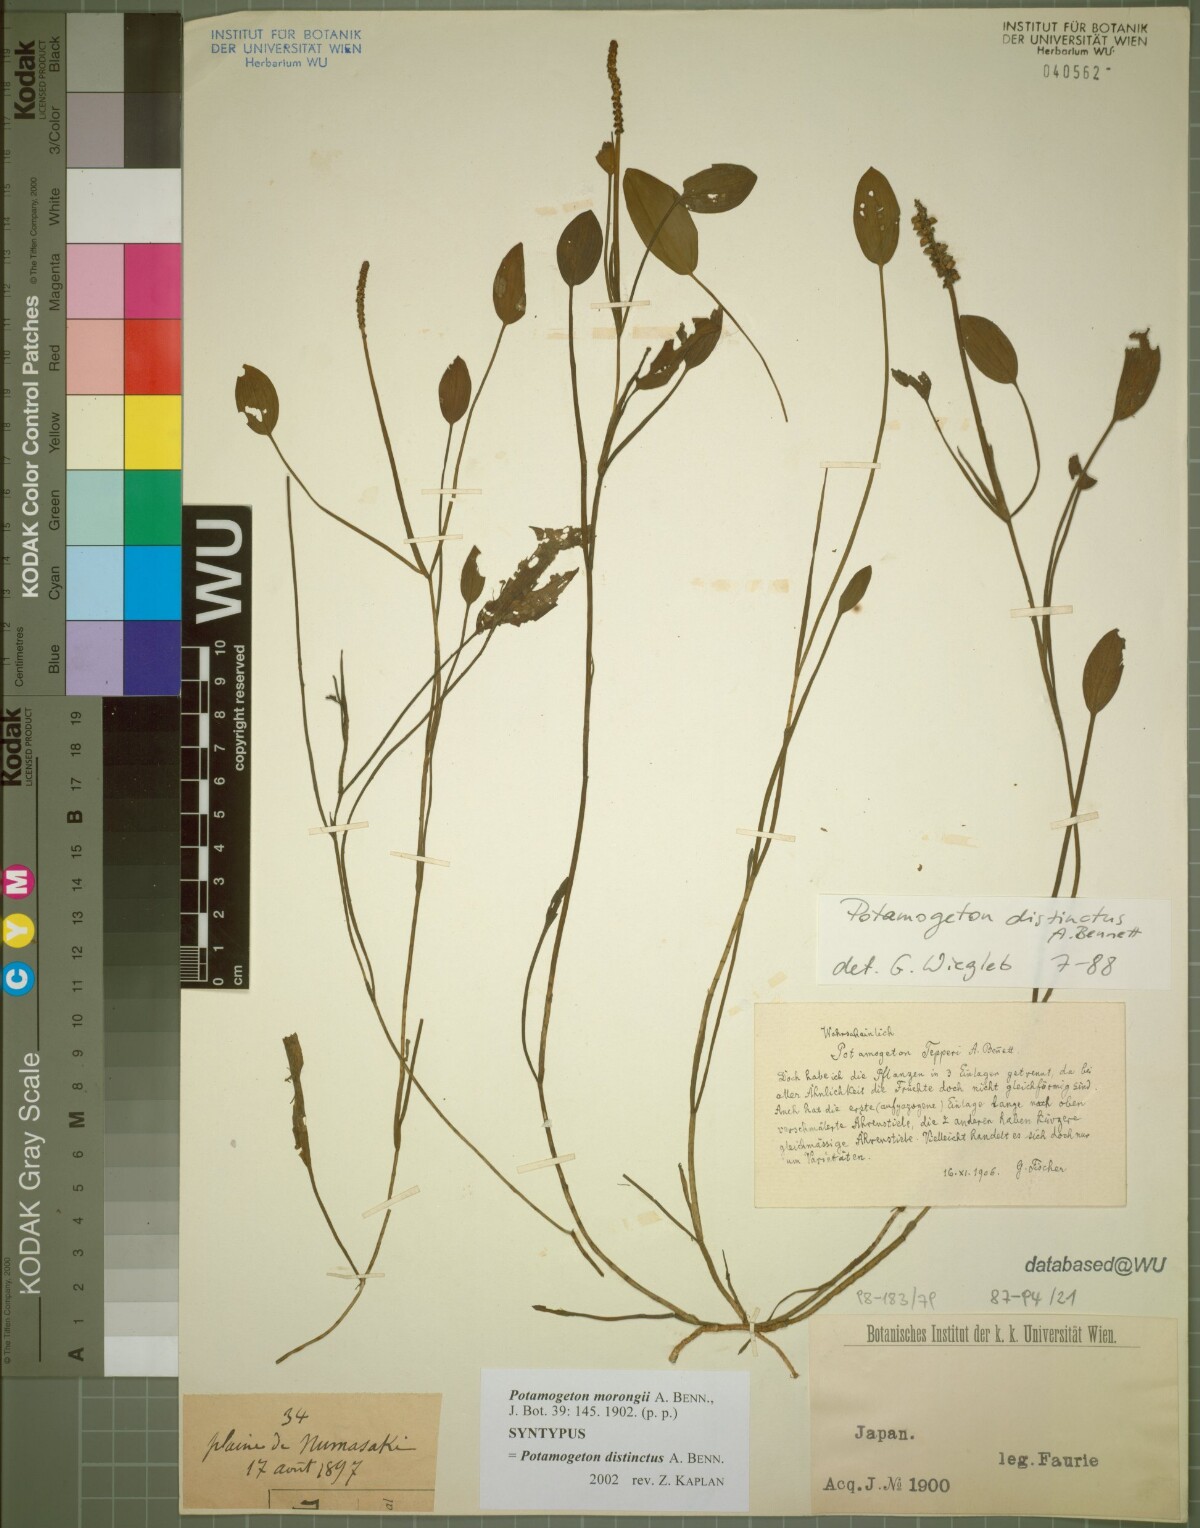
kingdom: Plantae
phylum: Tracheophyta
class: Liliopsida
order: Alismatales
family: Potamogetonaceae
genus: Potamogeton
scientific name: Potamogeton natans
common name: Broad-leaved pondweed
